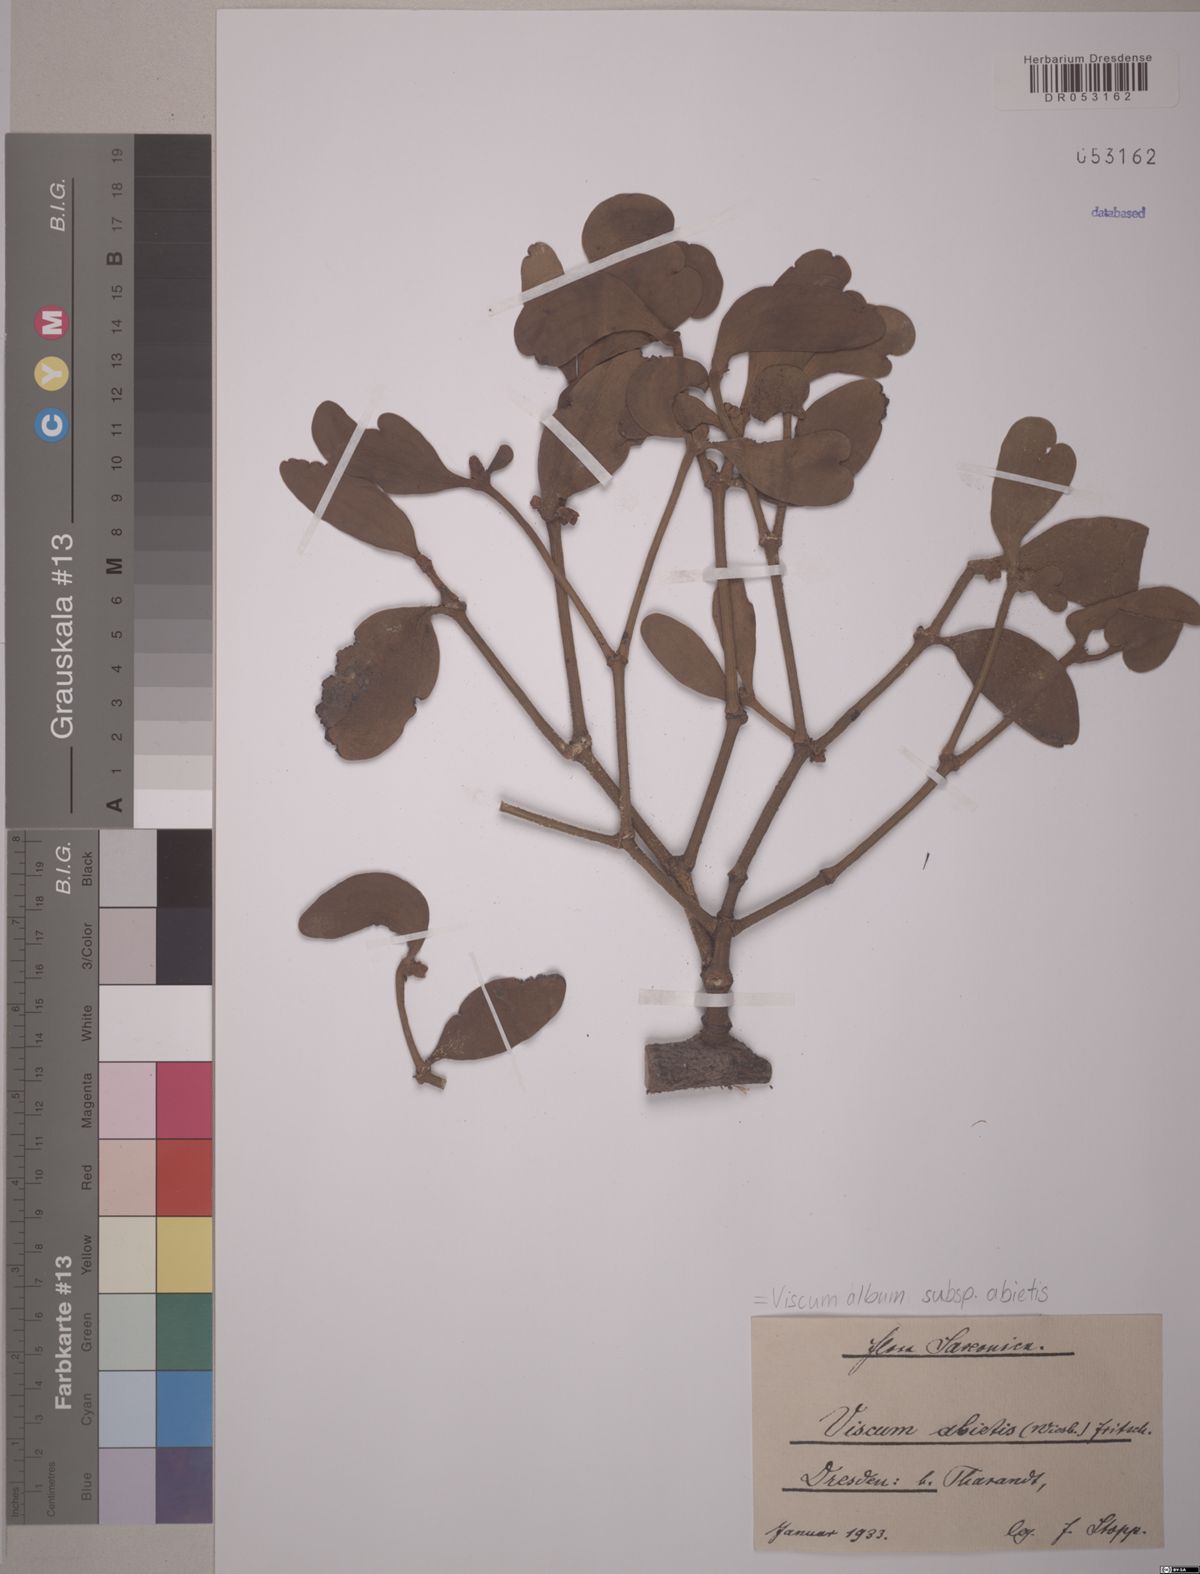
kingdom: Plantae
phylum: Tracheophyta
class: Magnoliopsida
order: Santalales
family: Viscaceae
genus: Viscum
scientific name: Viscum album
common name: Mistletoe
